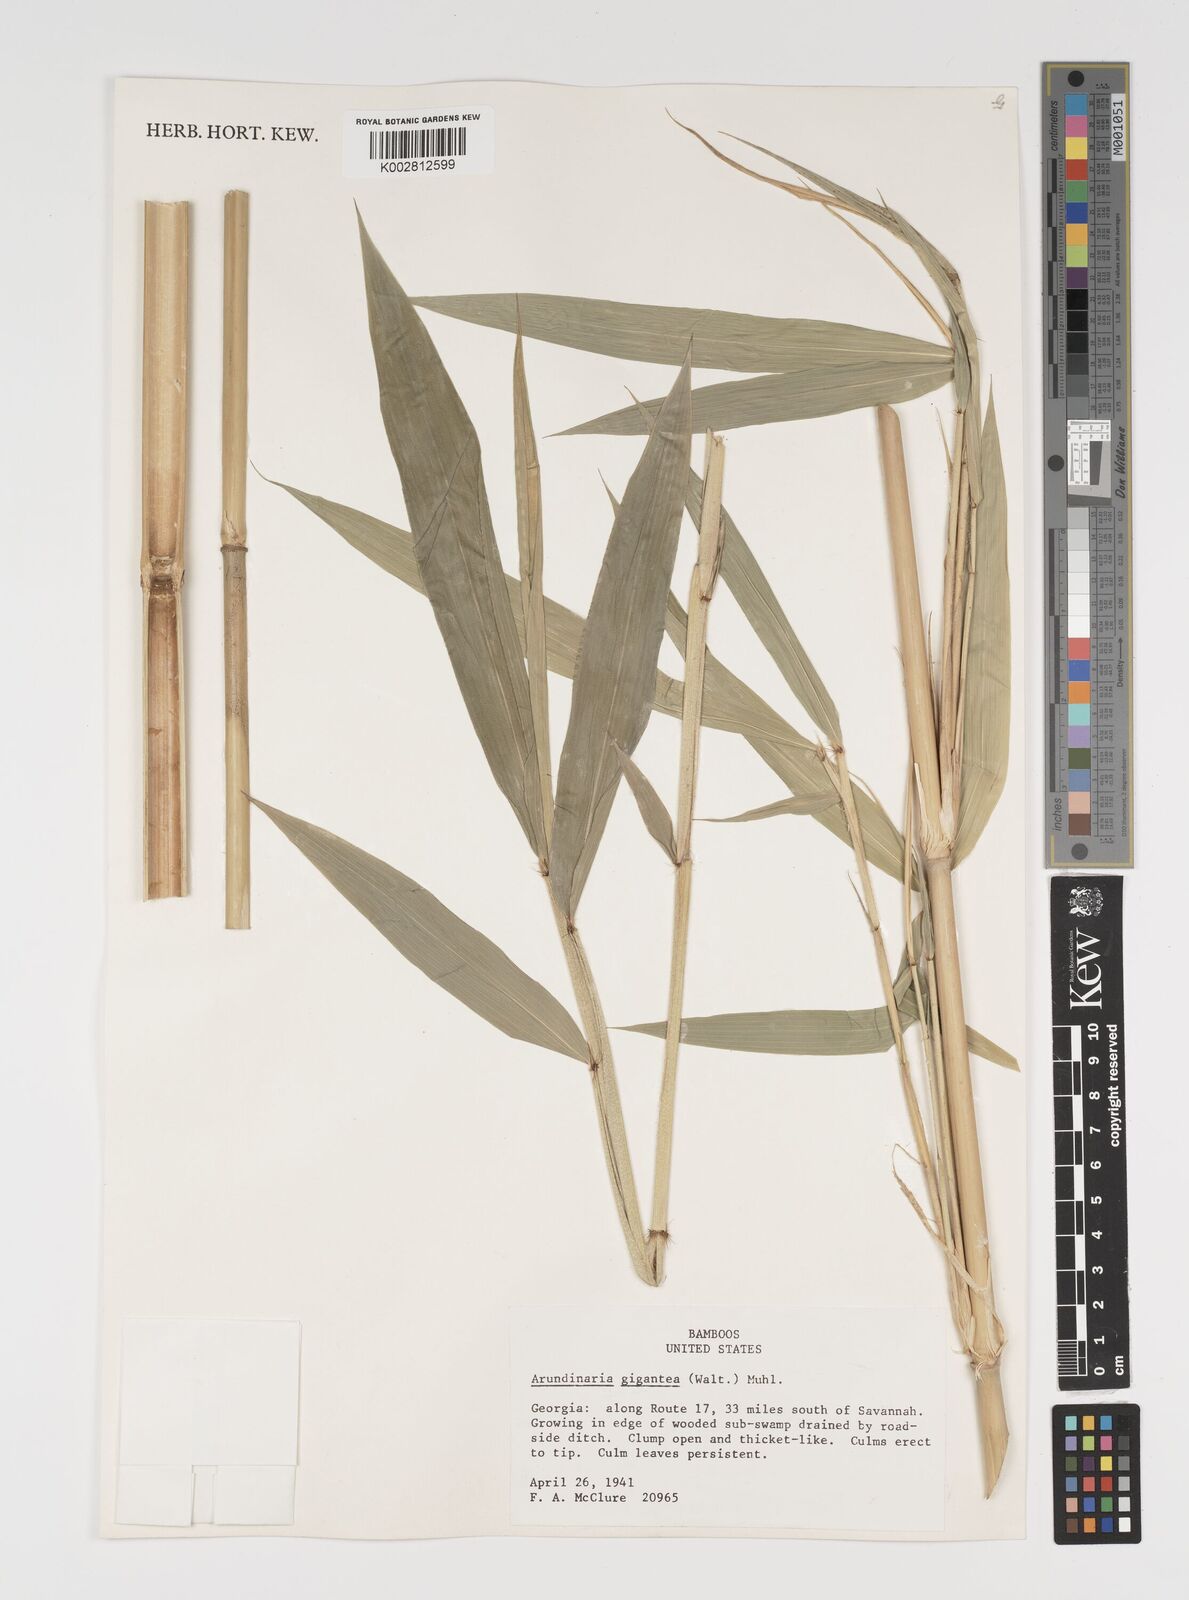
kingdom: Plantae
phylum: Tracheophyta
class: Liliopsida
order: Poales
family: Poaceae
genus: Arundinaria
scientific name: Arundinaria gigantea
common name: Giant cane
